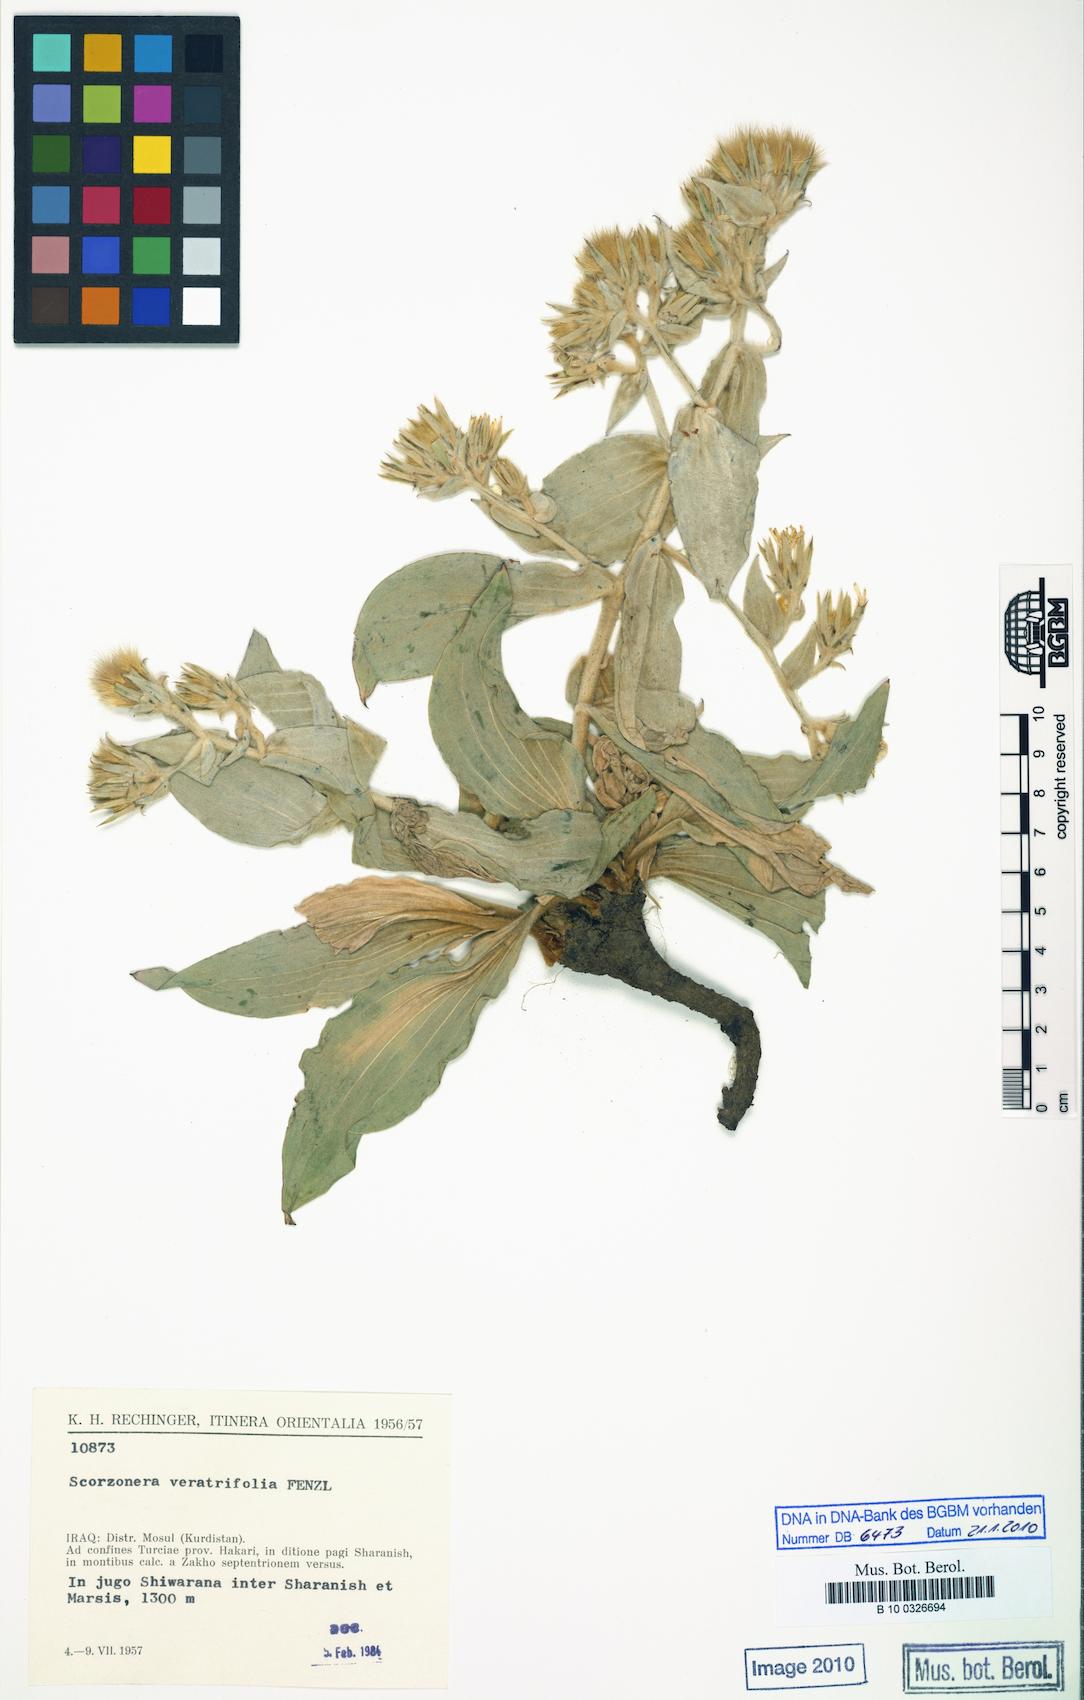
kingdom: Plantae
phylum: Tracheophyta
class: Magnoliopsida
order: Asterales
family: Asteraceae
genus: Guneria
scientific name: Guneria veratrifolia
